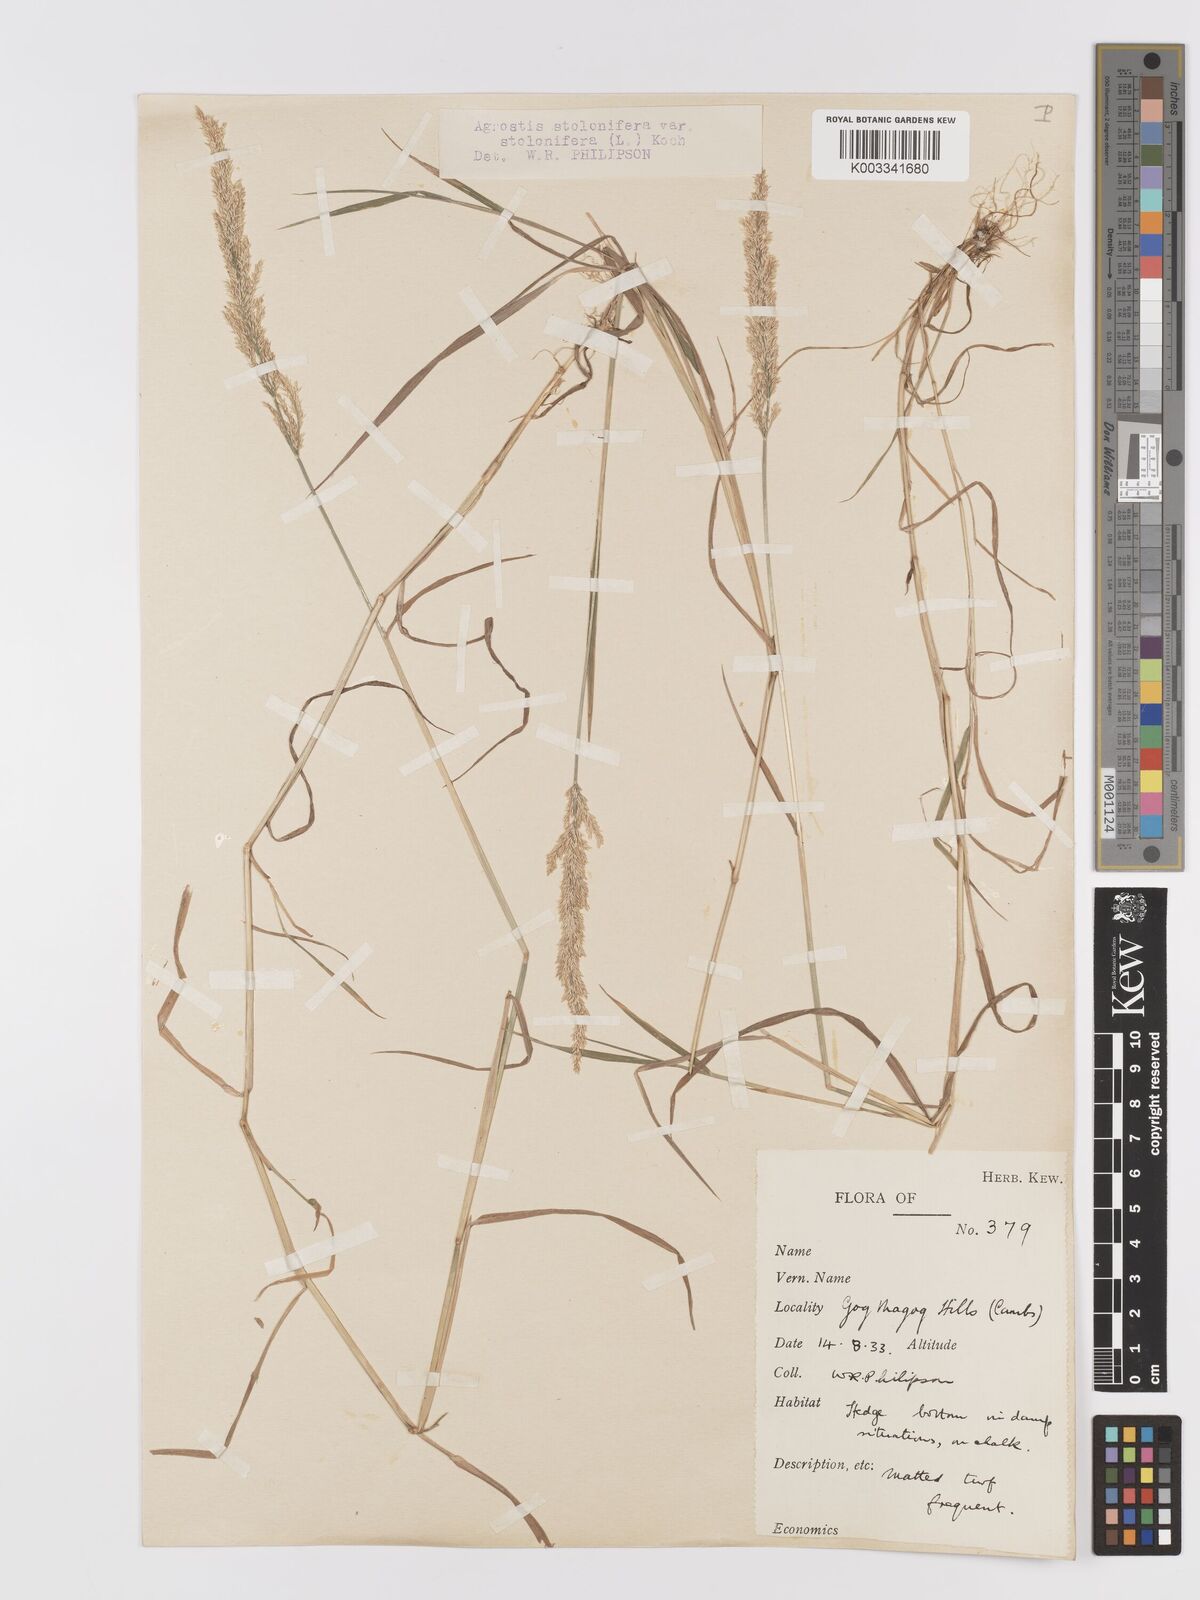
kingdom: Plantae
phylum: Tracheophyta
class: Liliopsida
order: Poales
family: Poaceae
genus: Agrostis
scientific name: Agrostis stolonifera
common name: Creeping bentgrass
